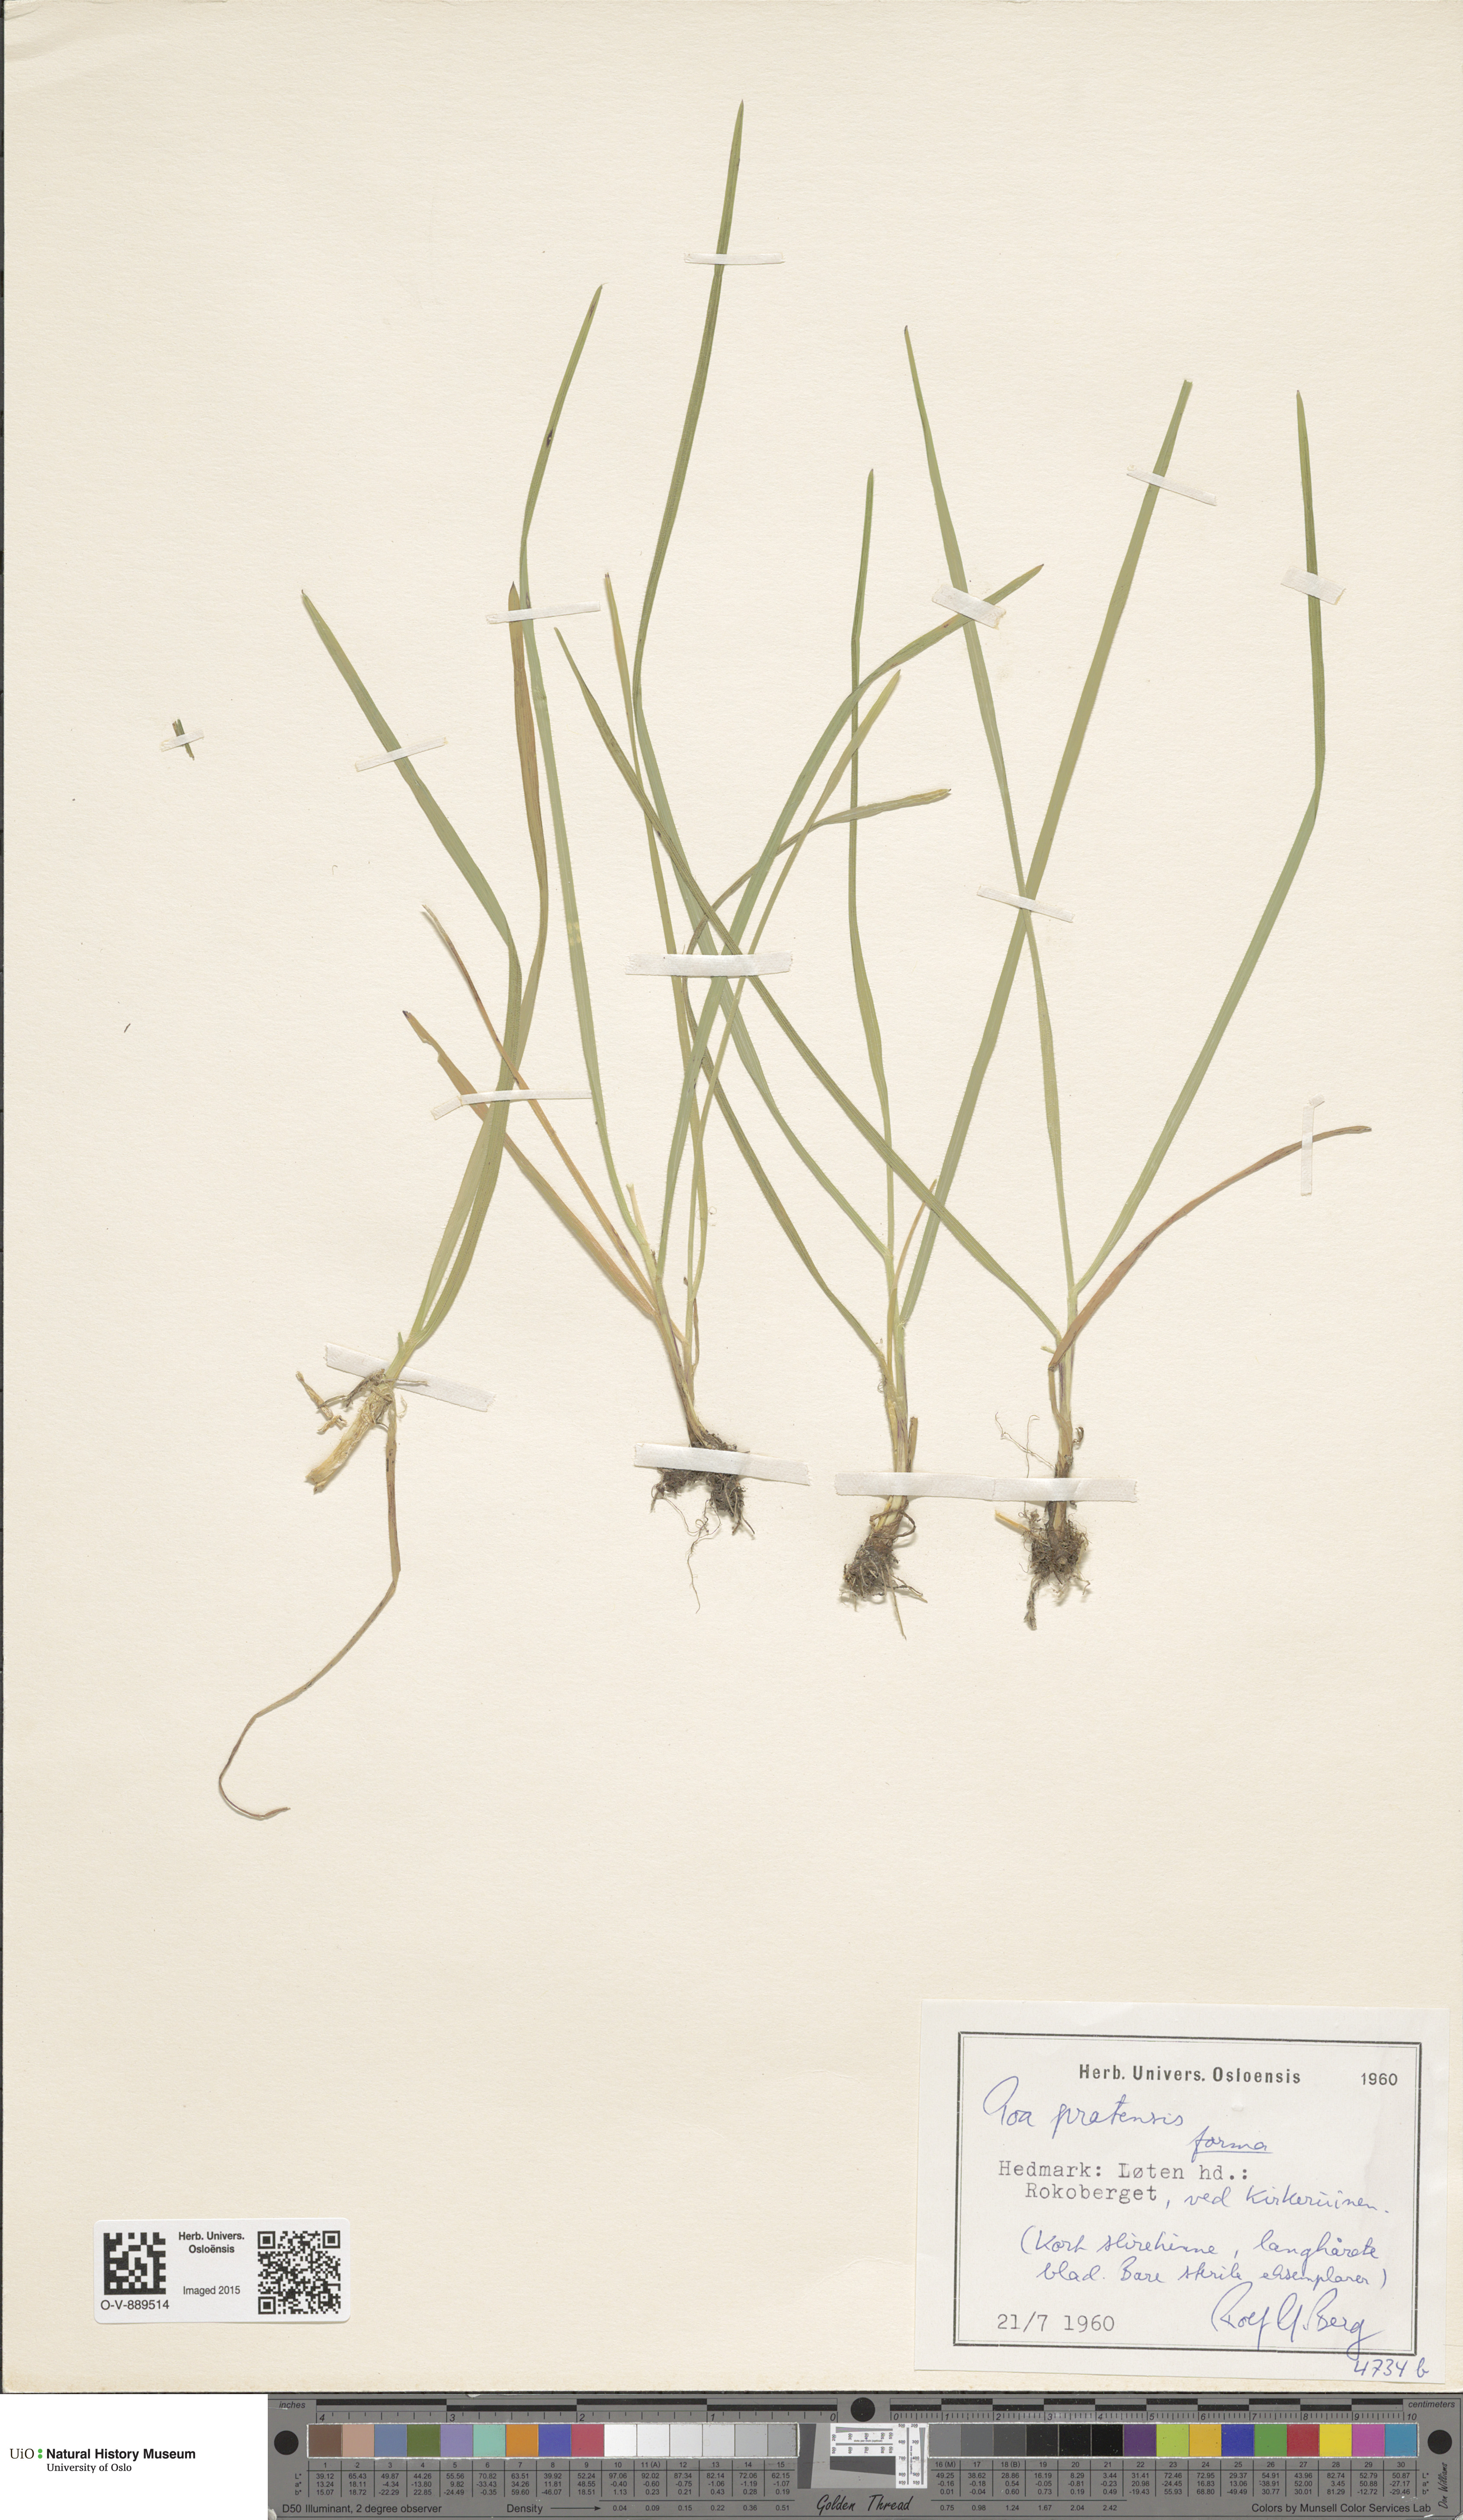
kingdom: Plantae
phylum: Tracheophyta
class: Liliopsida
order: Poales
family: Poaceae
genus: Poa
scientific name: Poa pratensis
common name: Kentucky bluegrass
